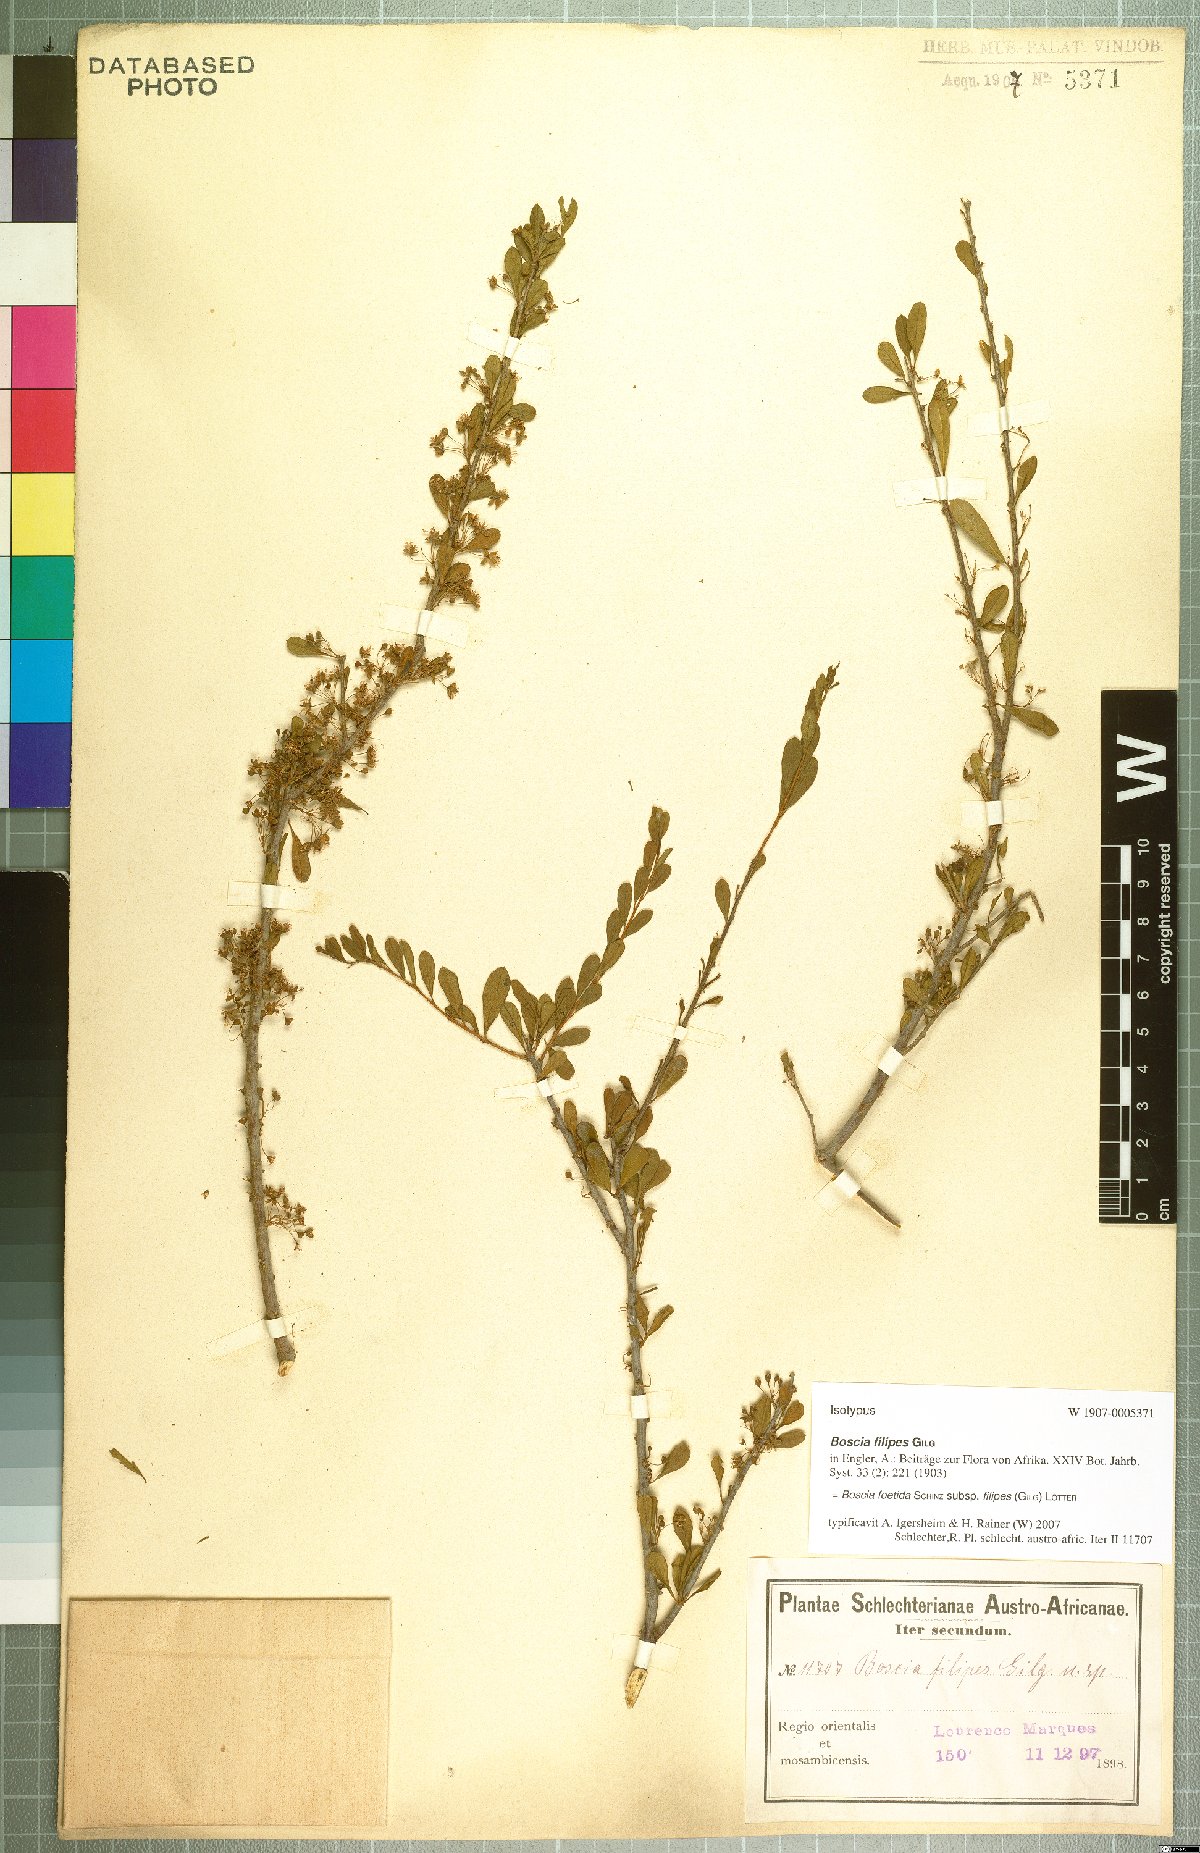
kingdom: Plantae
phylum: Tracheophyta
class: Magnoliopsida
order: Brassicales
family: Capparaceae
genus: Boscia
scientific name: Boscia foetida
